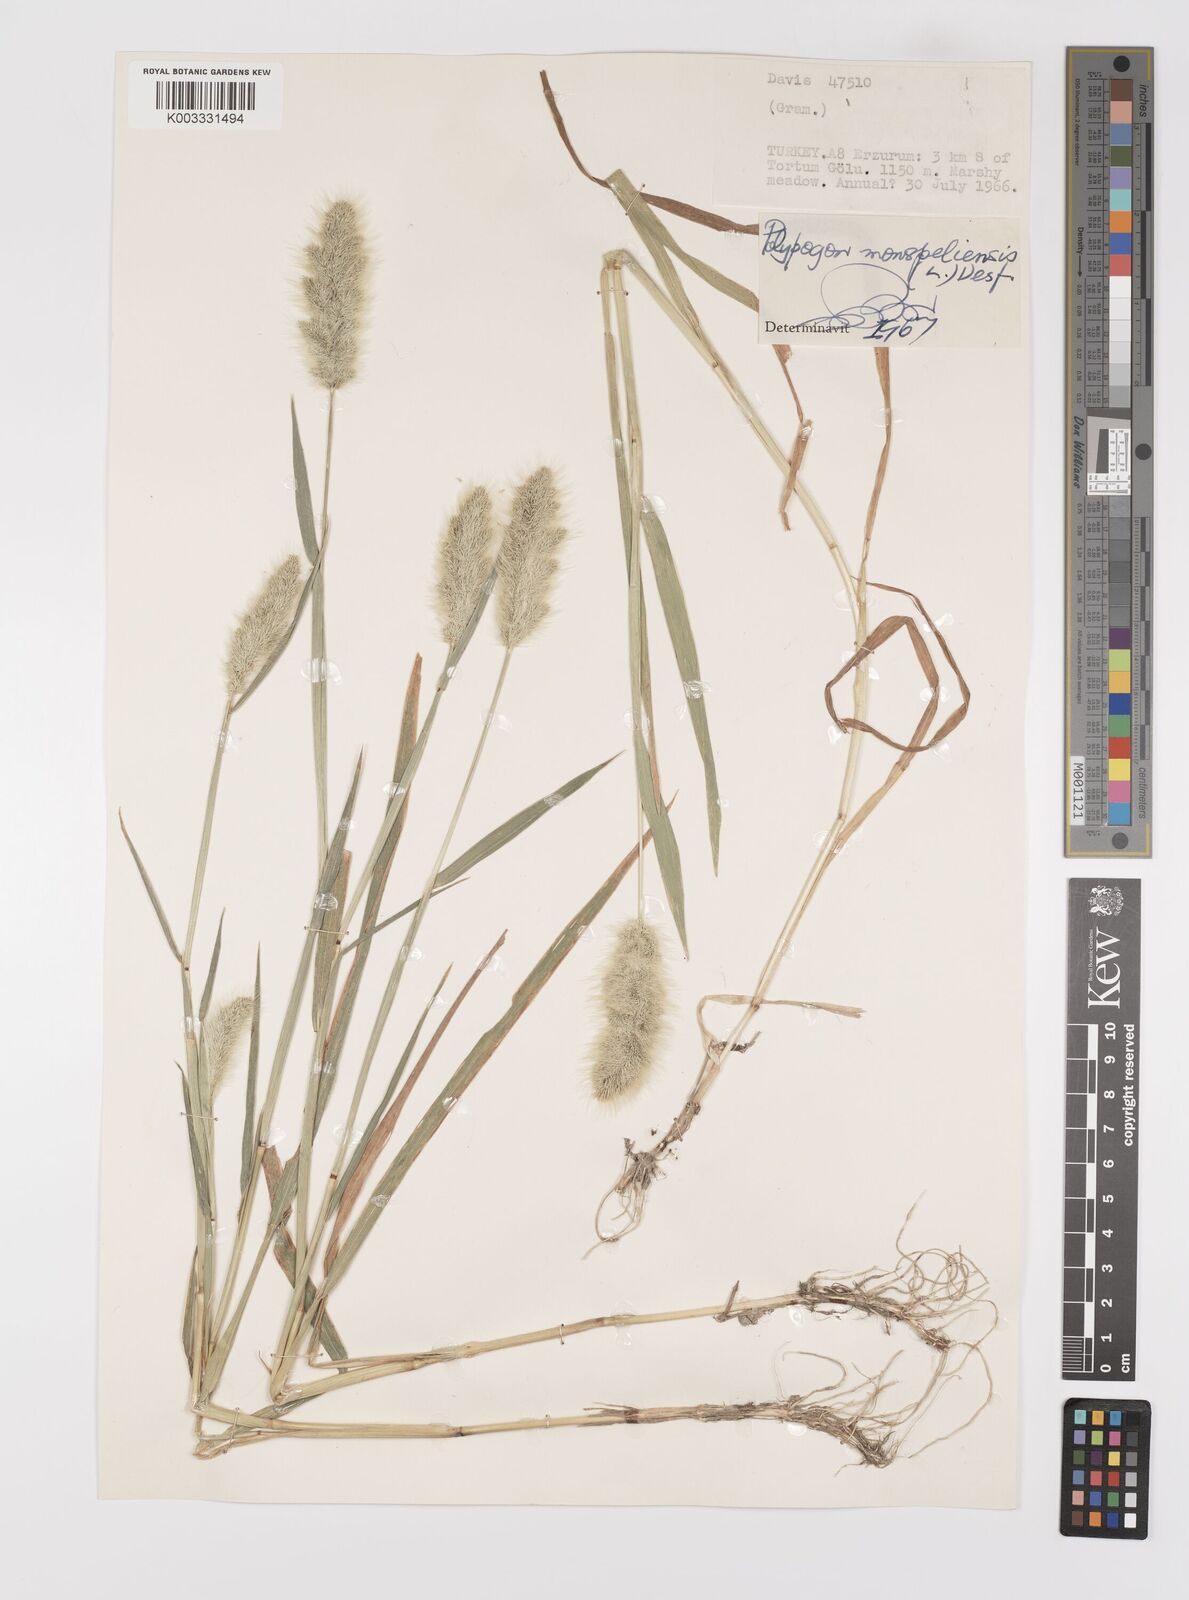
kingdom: Plantae
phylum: Tracheophyta
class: Liliopsida
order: Poales
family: Poaceae
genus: Polypogon
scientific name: Polypogon monspeliensis
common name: Annual rabbitsfoot grass
